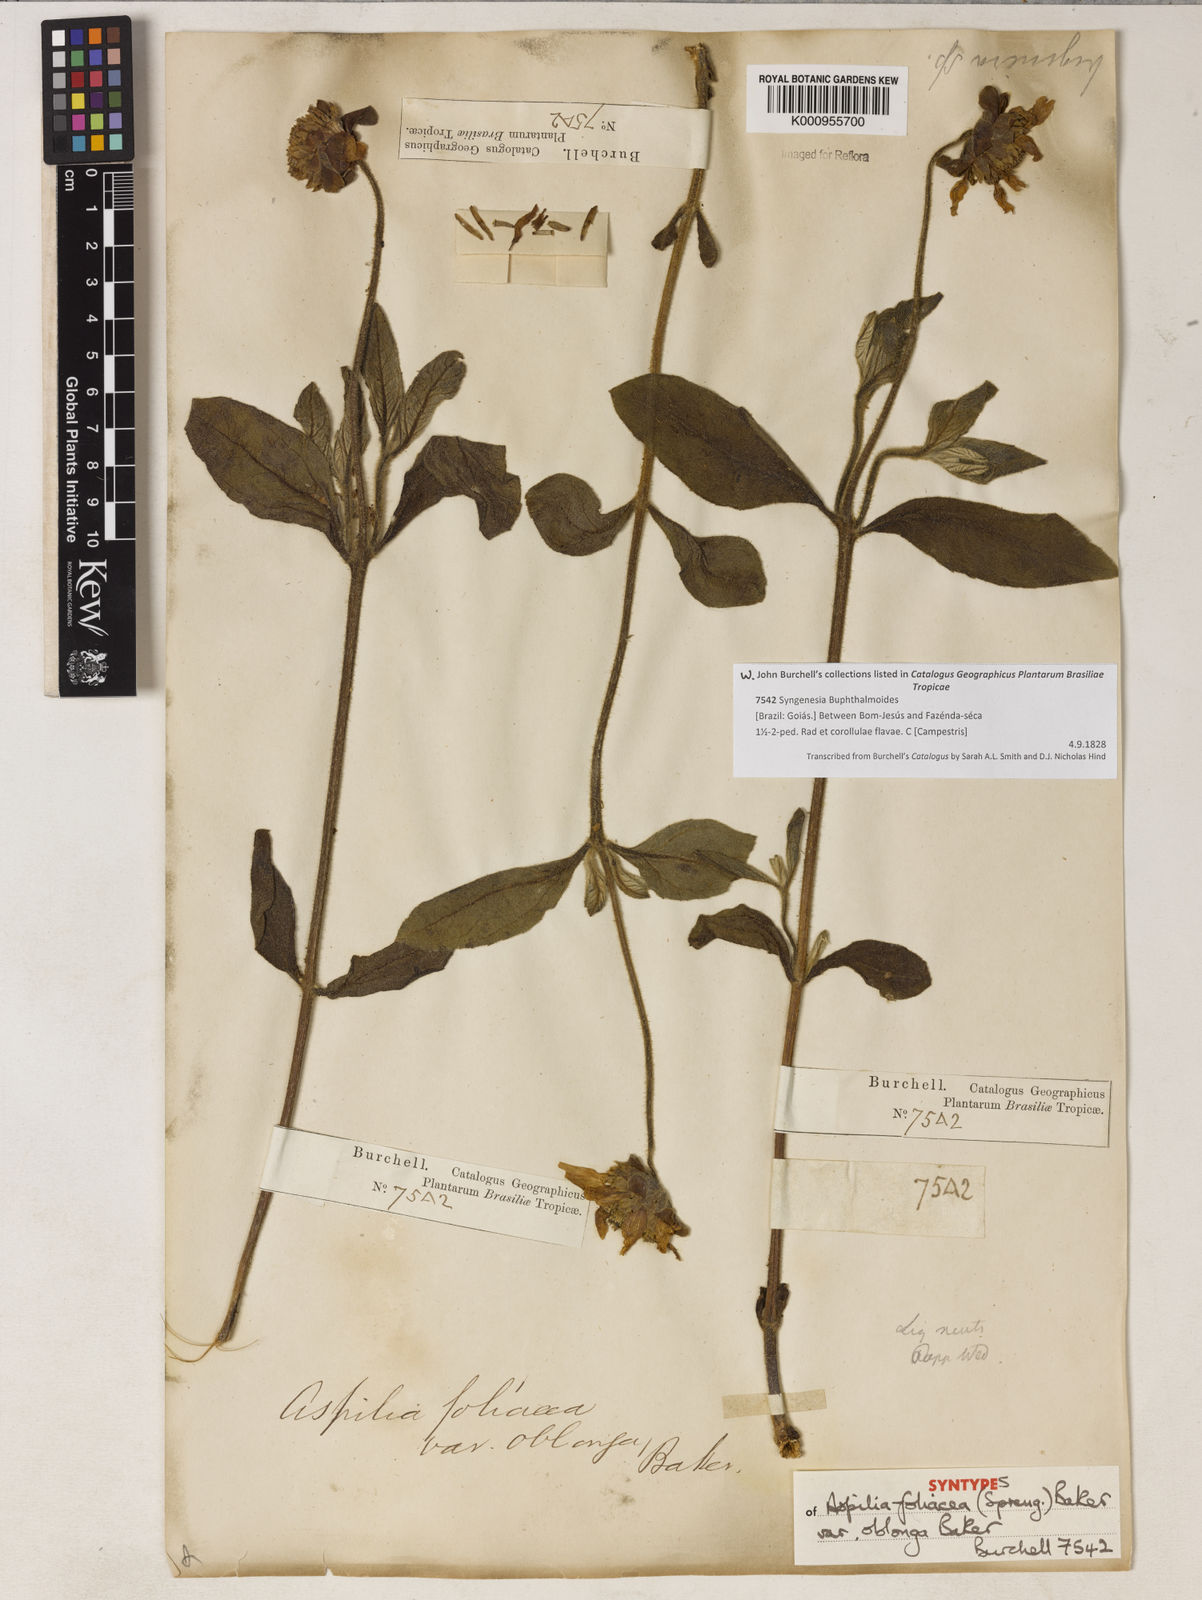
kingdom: Plantae
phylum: Tracheophyta
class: Magnoliopsida
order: Asterales
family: Asteraceae
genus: Wedelia
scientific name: Wedelia foliacea
